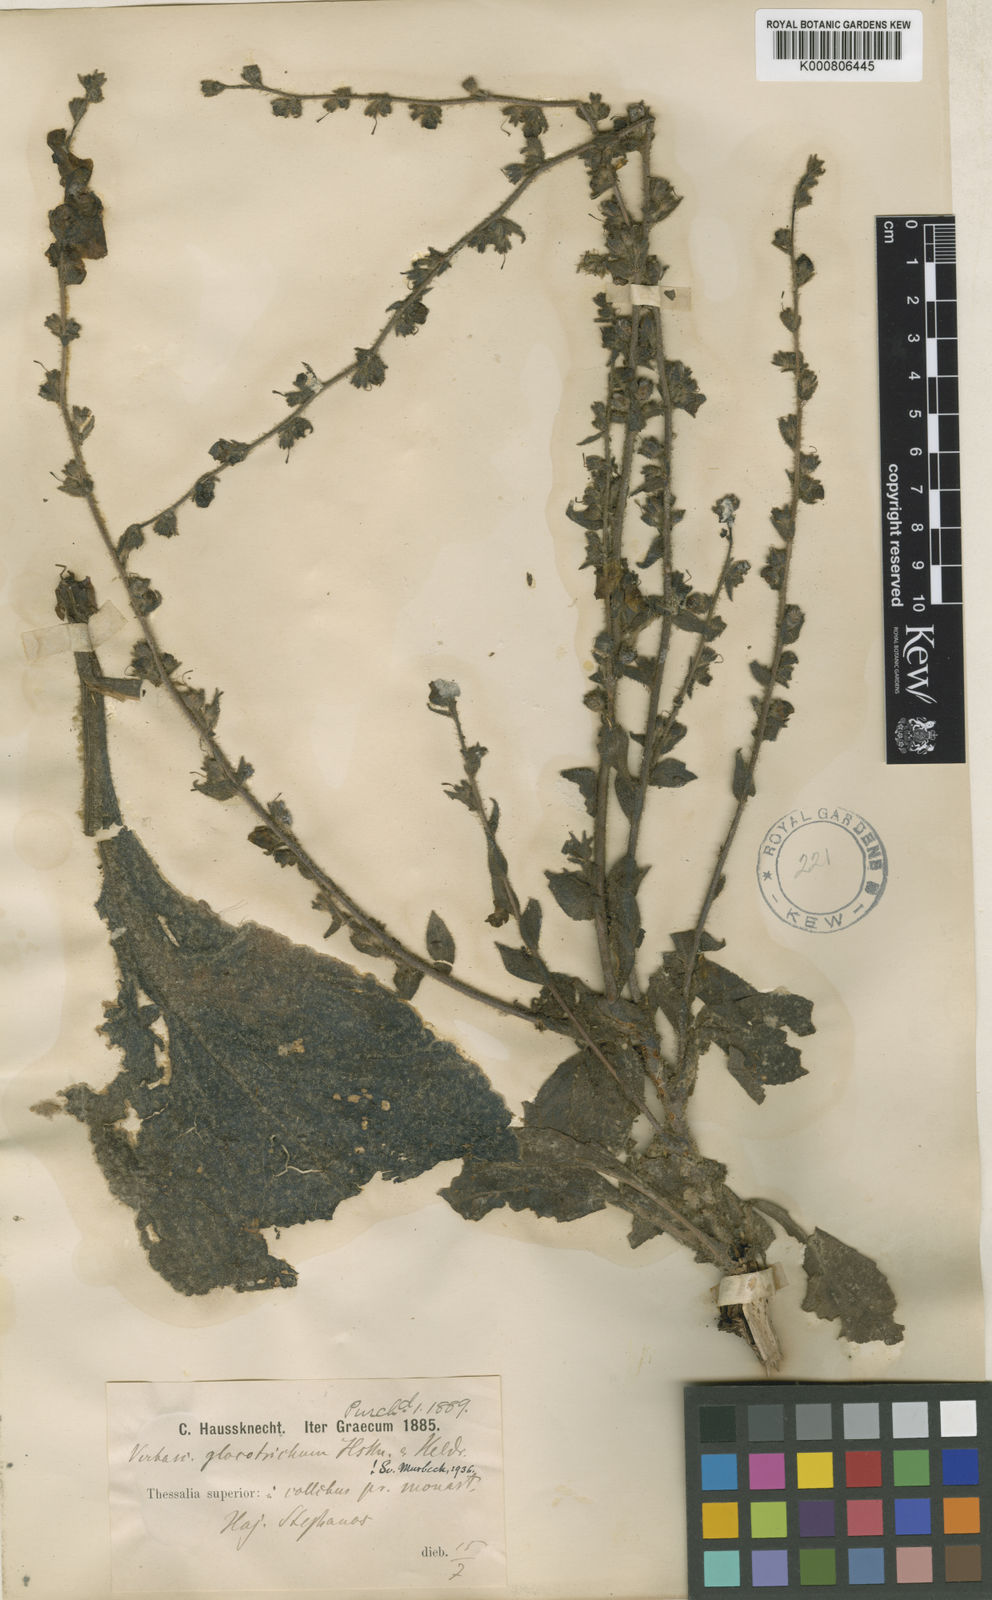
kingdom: Plantae
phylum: Tracheophyta
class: Magnoliopsida
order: Lamiales
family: Scrophulariaceae
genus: Verbascum
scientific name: Verbascum gloeotrichum
